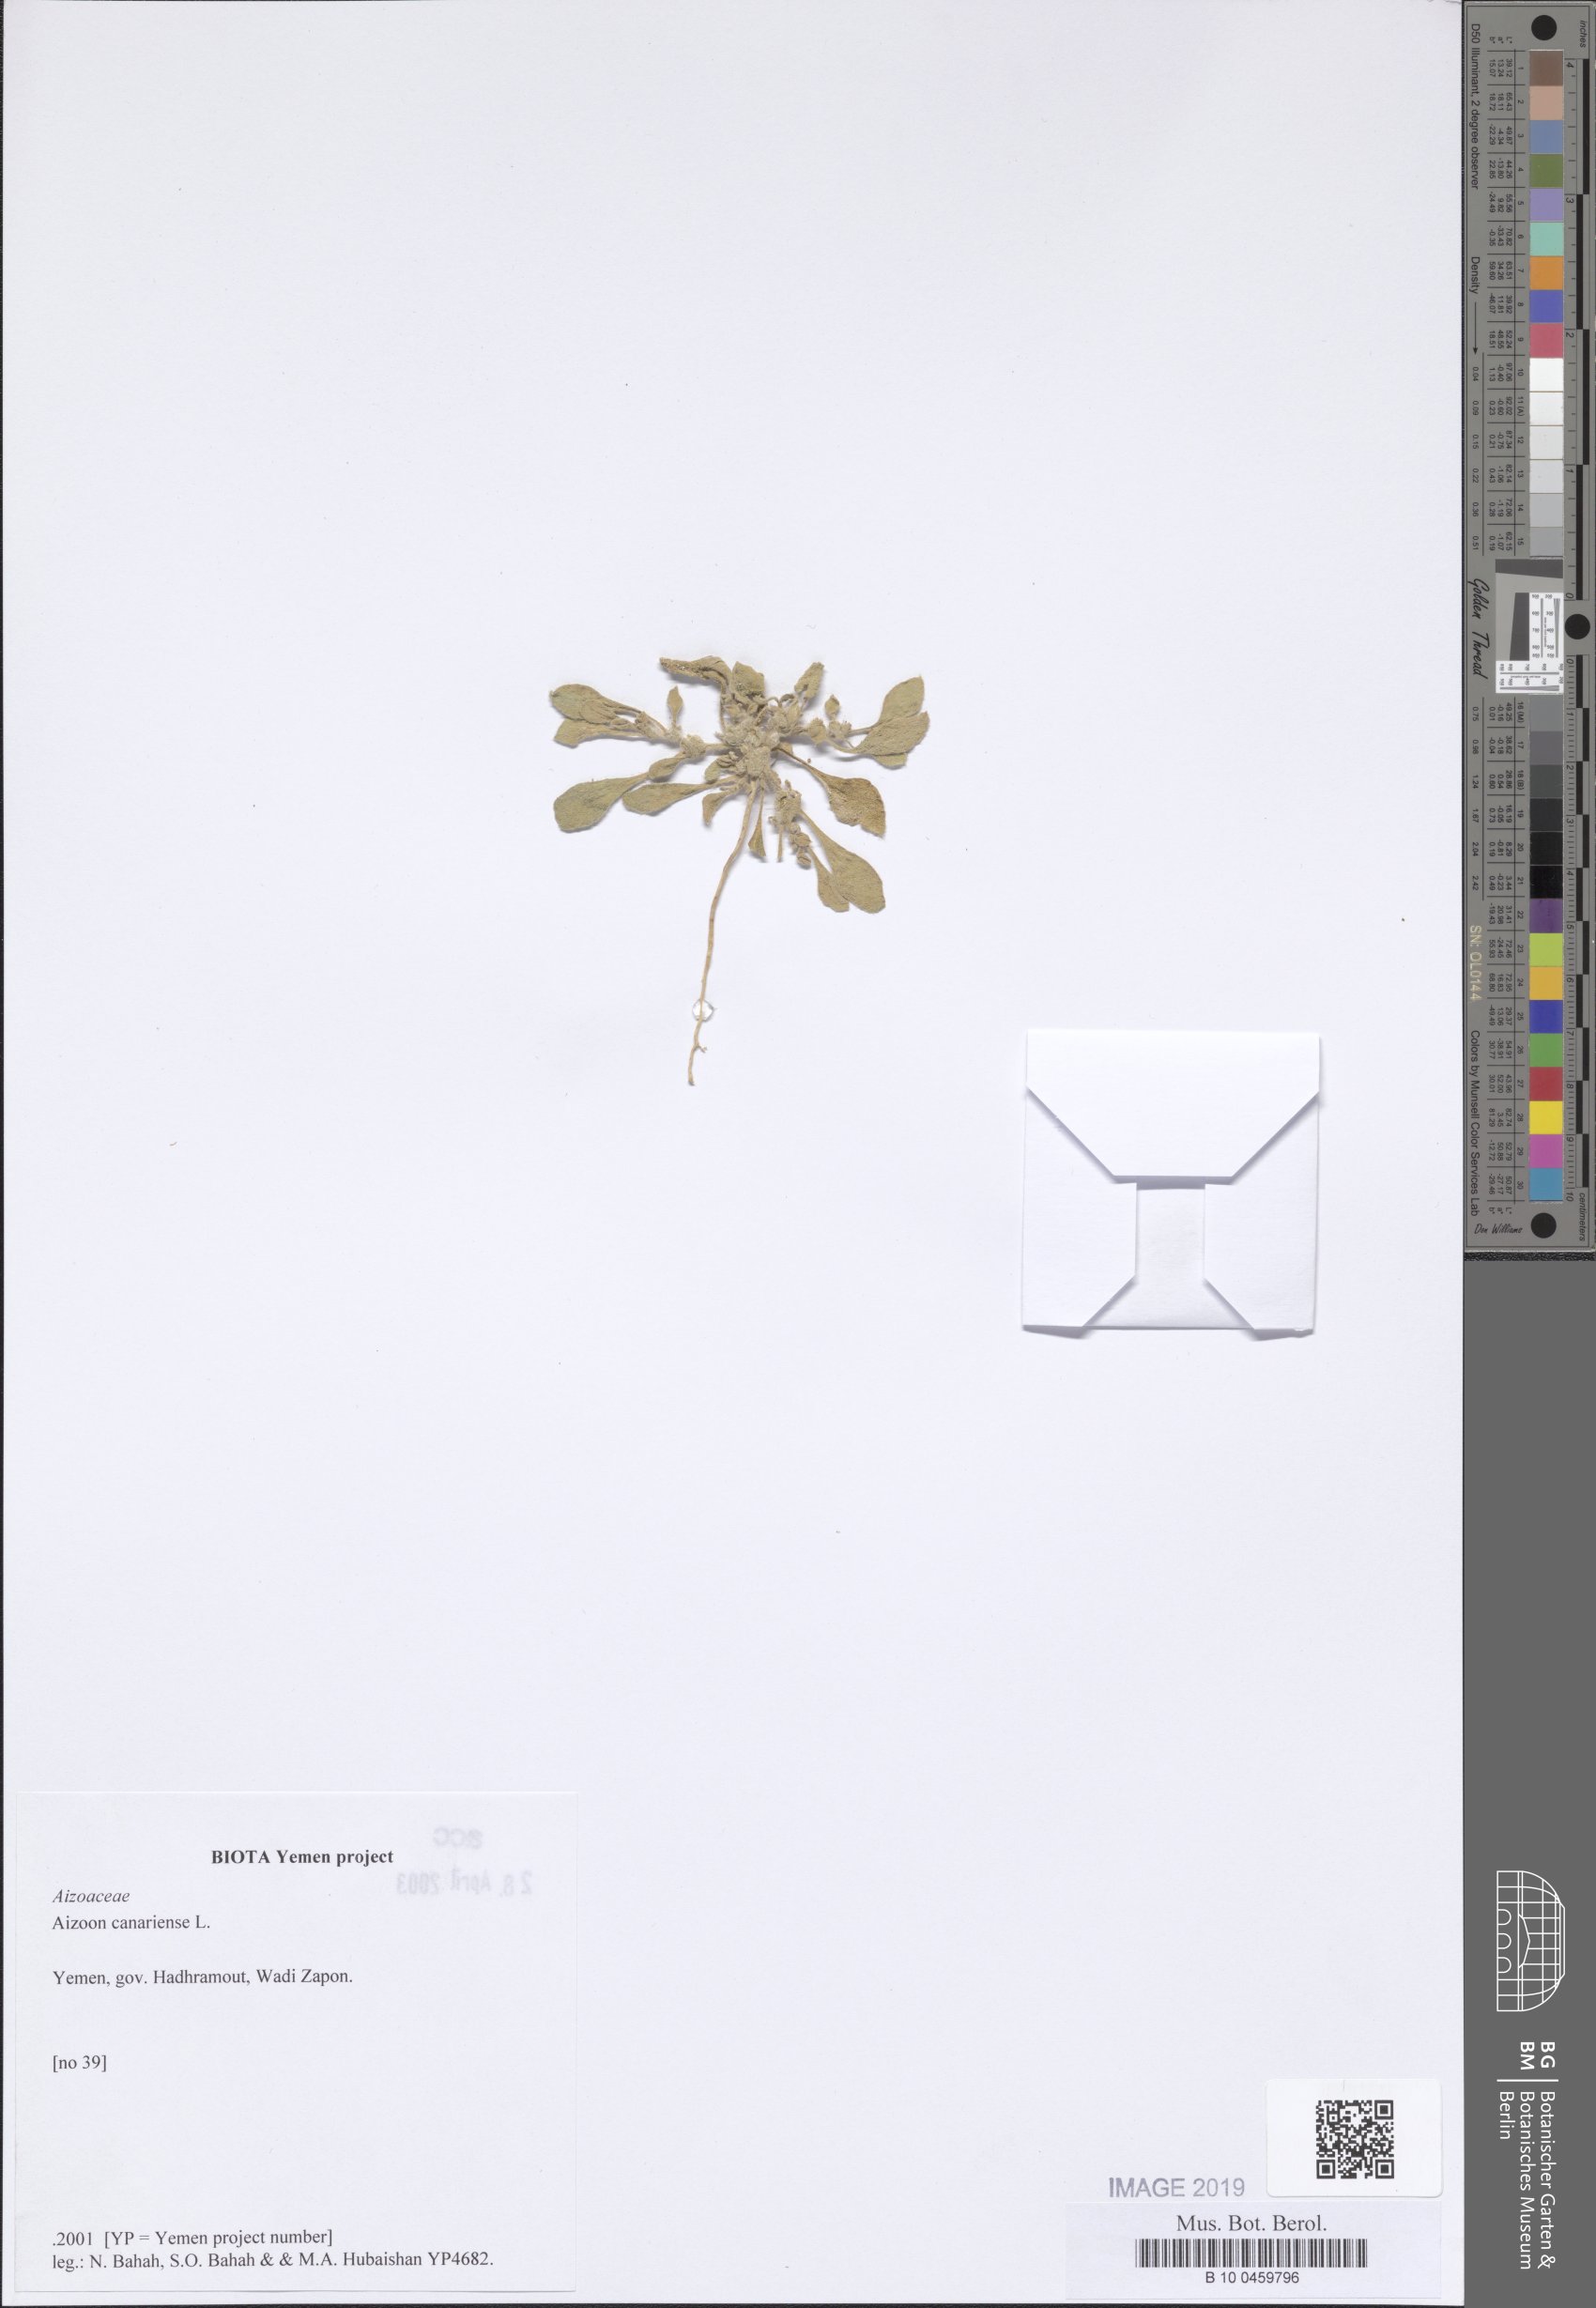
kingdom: Plantae
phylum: Tracheophyta
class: Magnoliopsida
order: Caryophyllales
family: Aizoaceae
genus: Aizoon
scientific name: Aizoon canariense
